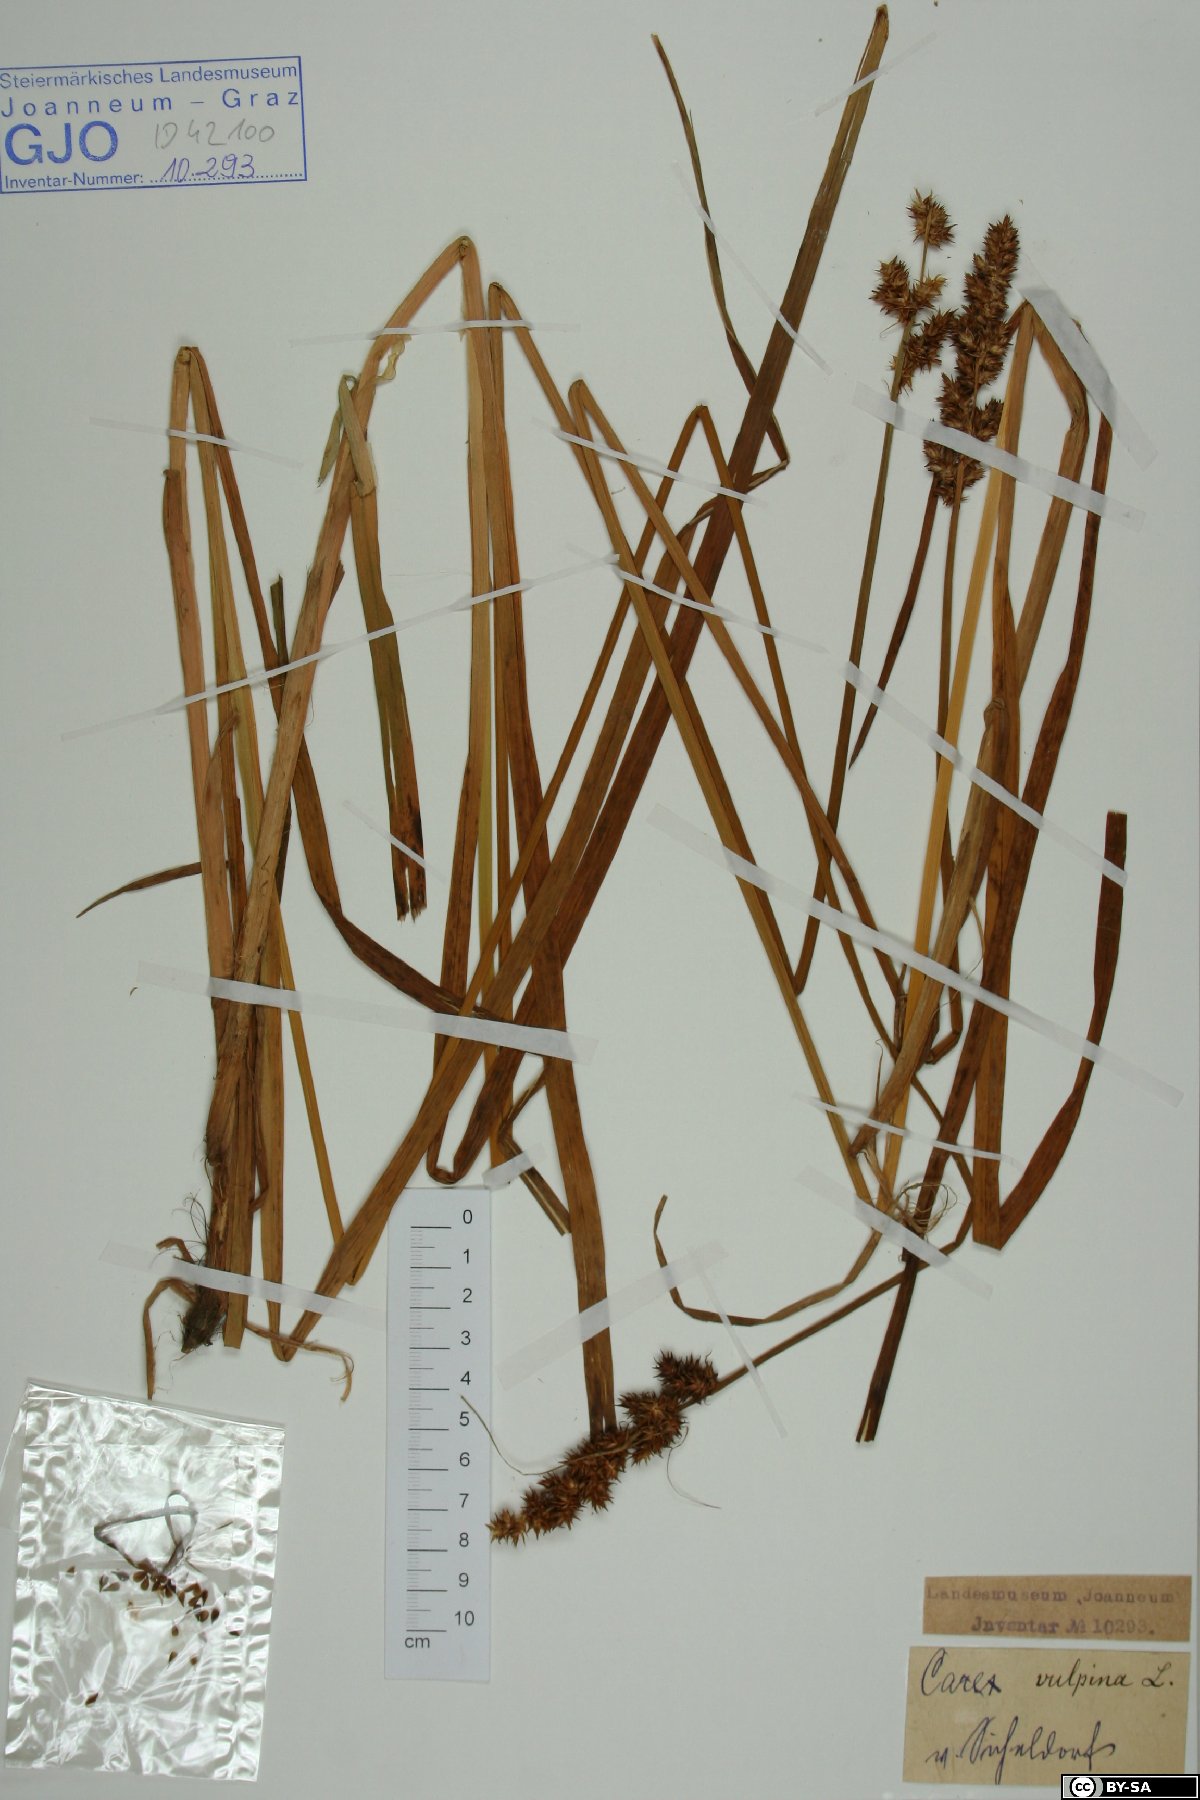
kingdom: Plantae
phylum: Tracheophyta
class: Liliopsida
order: Poales
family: Cyperaceae
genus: Carex
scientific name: Carex vulpina
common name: True fox-sedge
